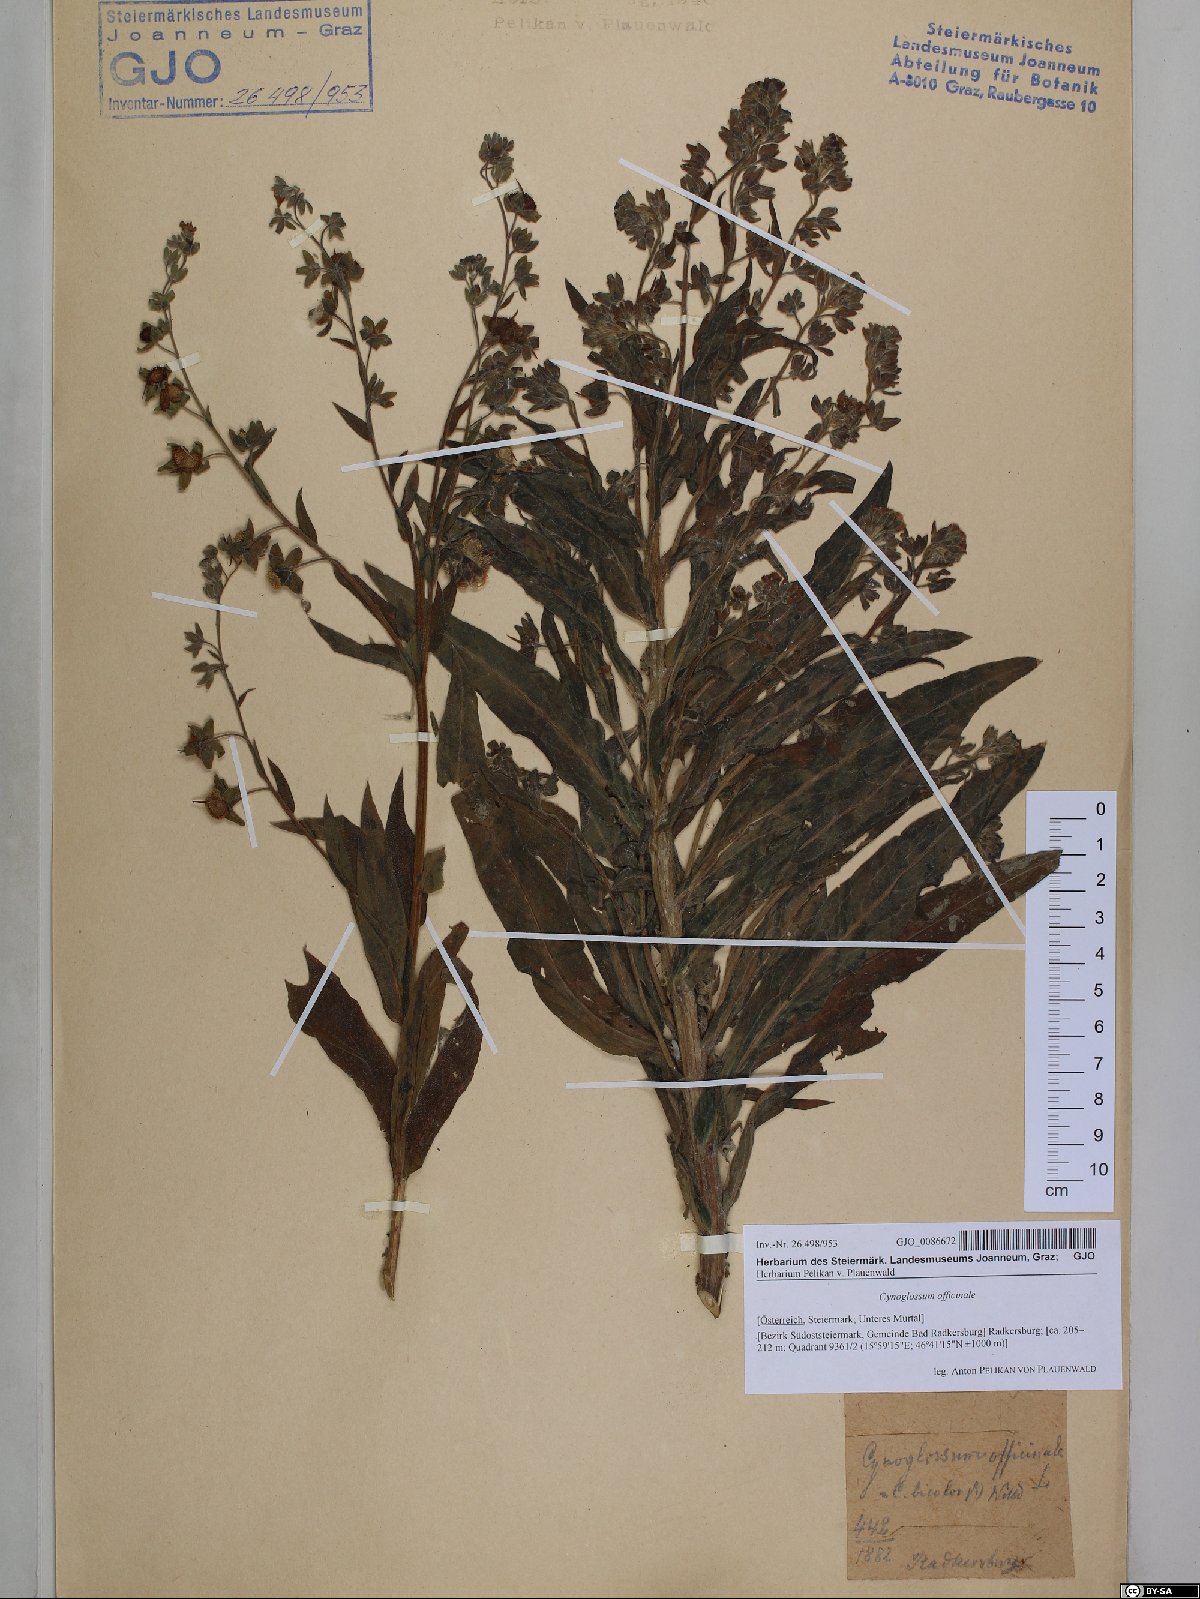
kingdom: Plantae
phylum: Tracheophyta
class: Magnoliopsida
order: Boraginales
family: Boraginaceae
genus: Cynoglossum
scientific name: Cynoglossum officinale
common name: Hound's-tongue
